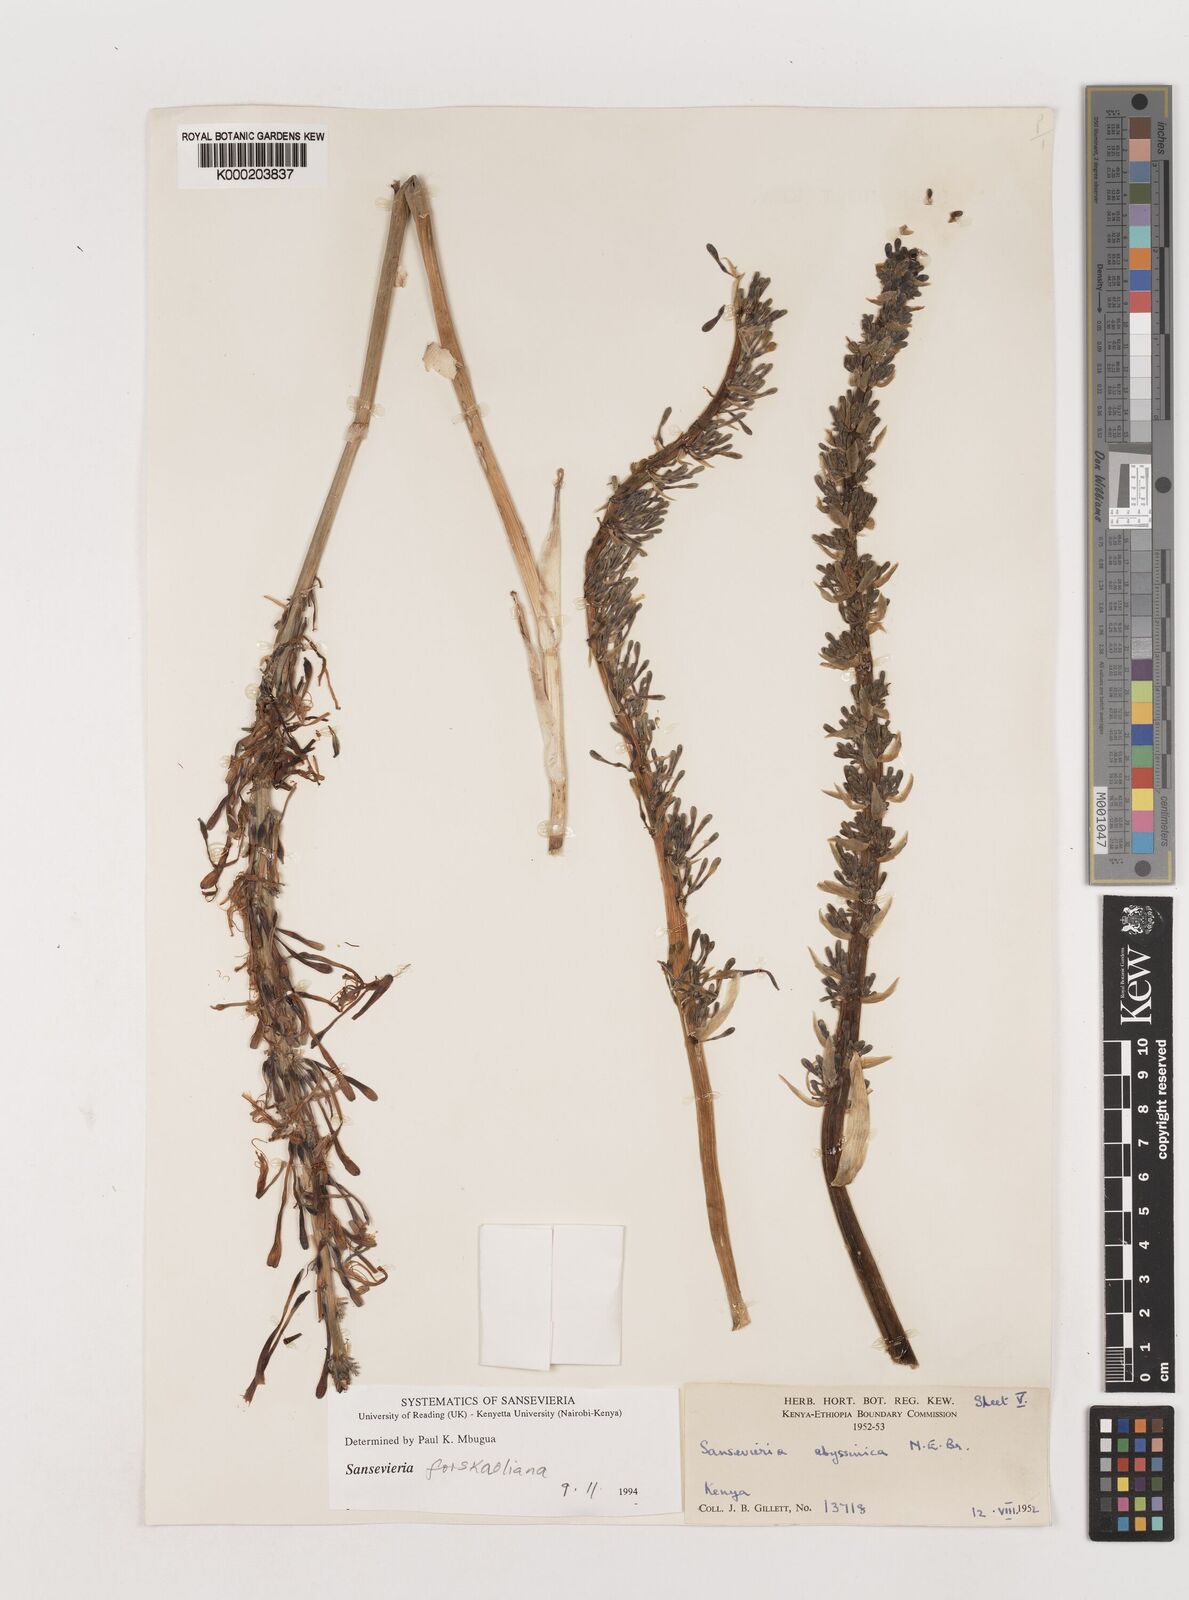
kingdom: Plantae
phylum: Tracheophyta
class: Liliopsida
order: Asparagales
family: Asparagaceae
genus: Dracaena
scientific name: Dracaena forskaliana
